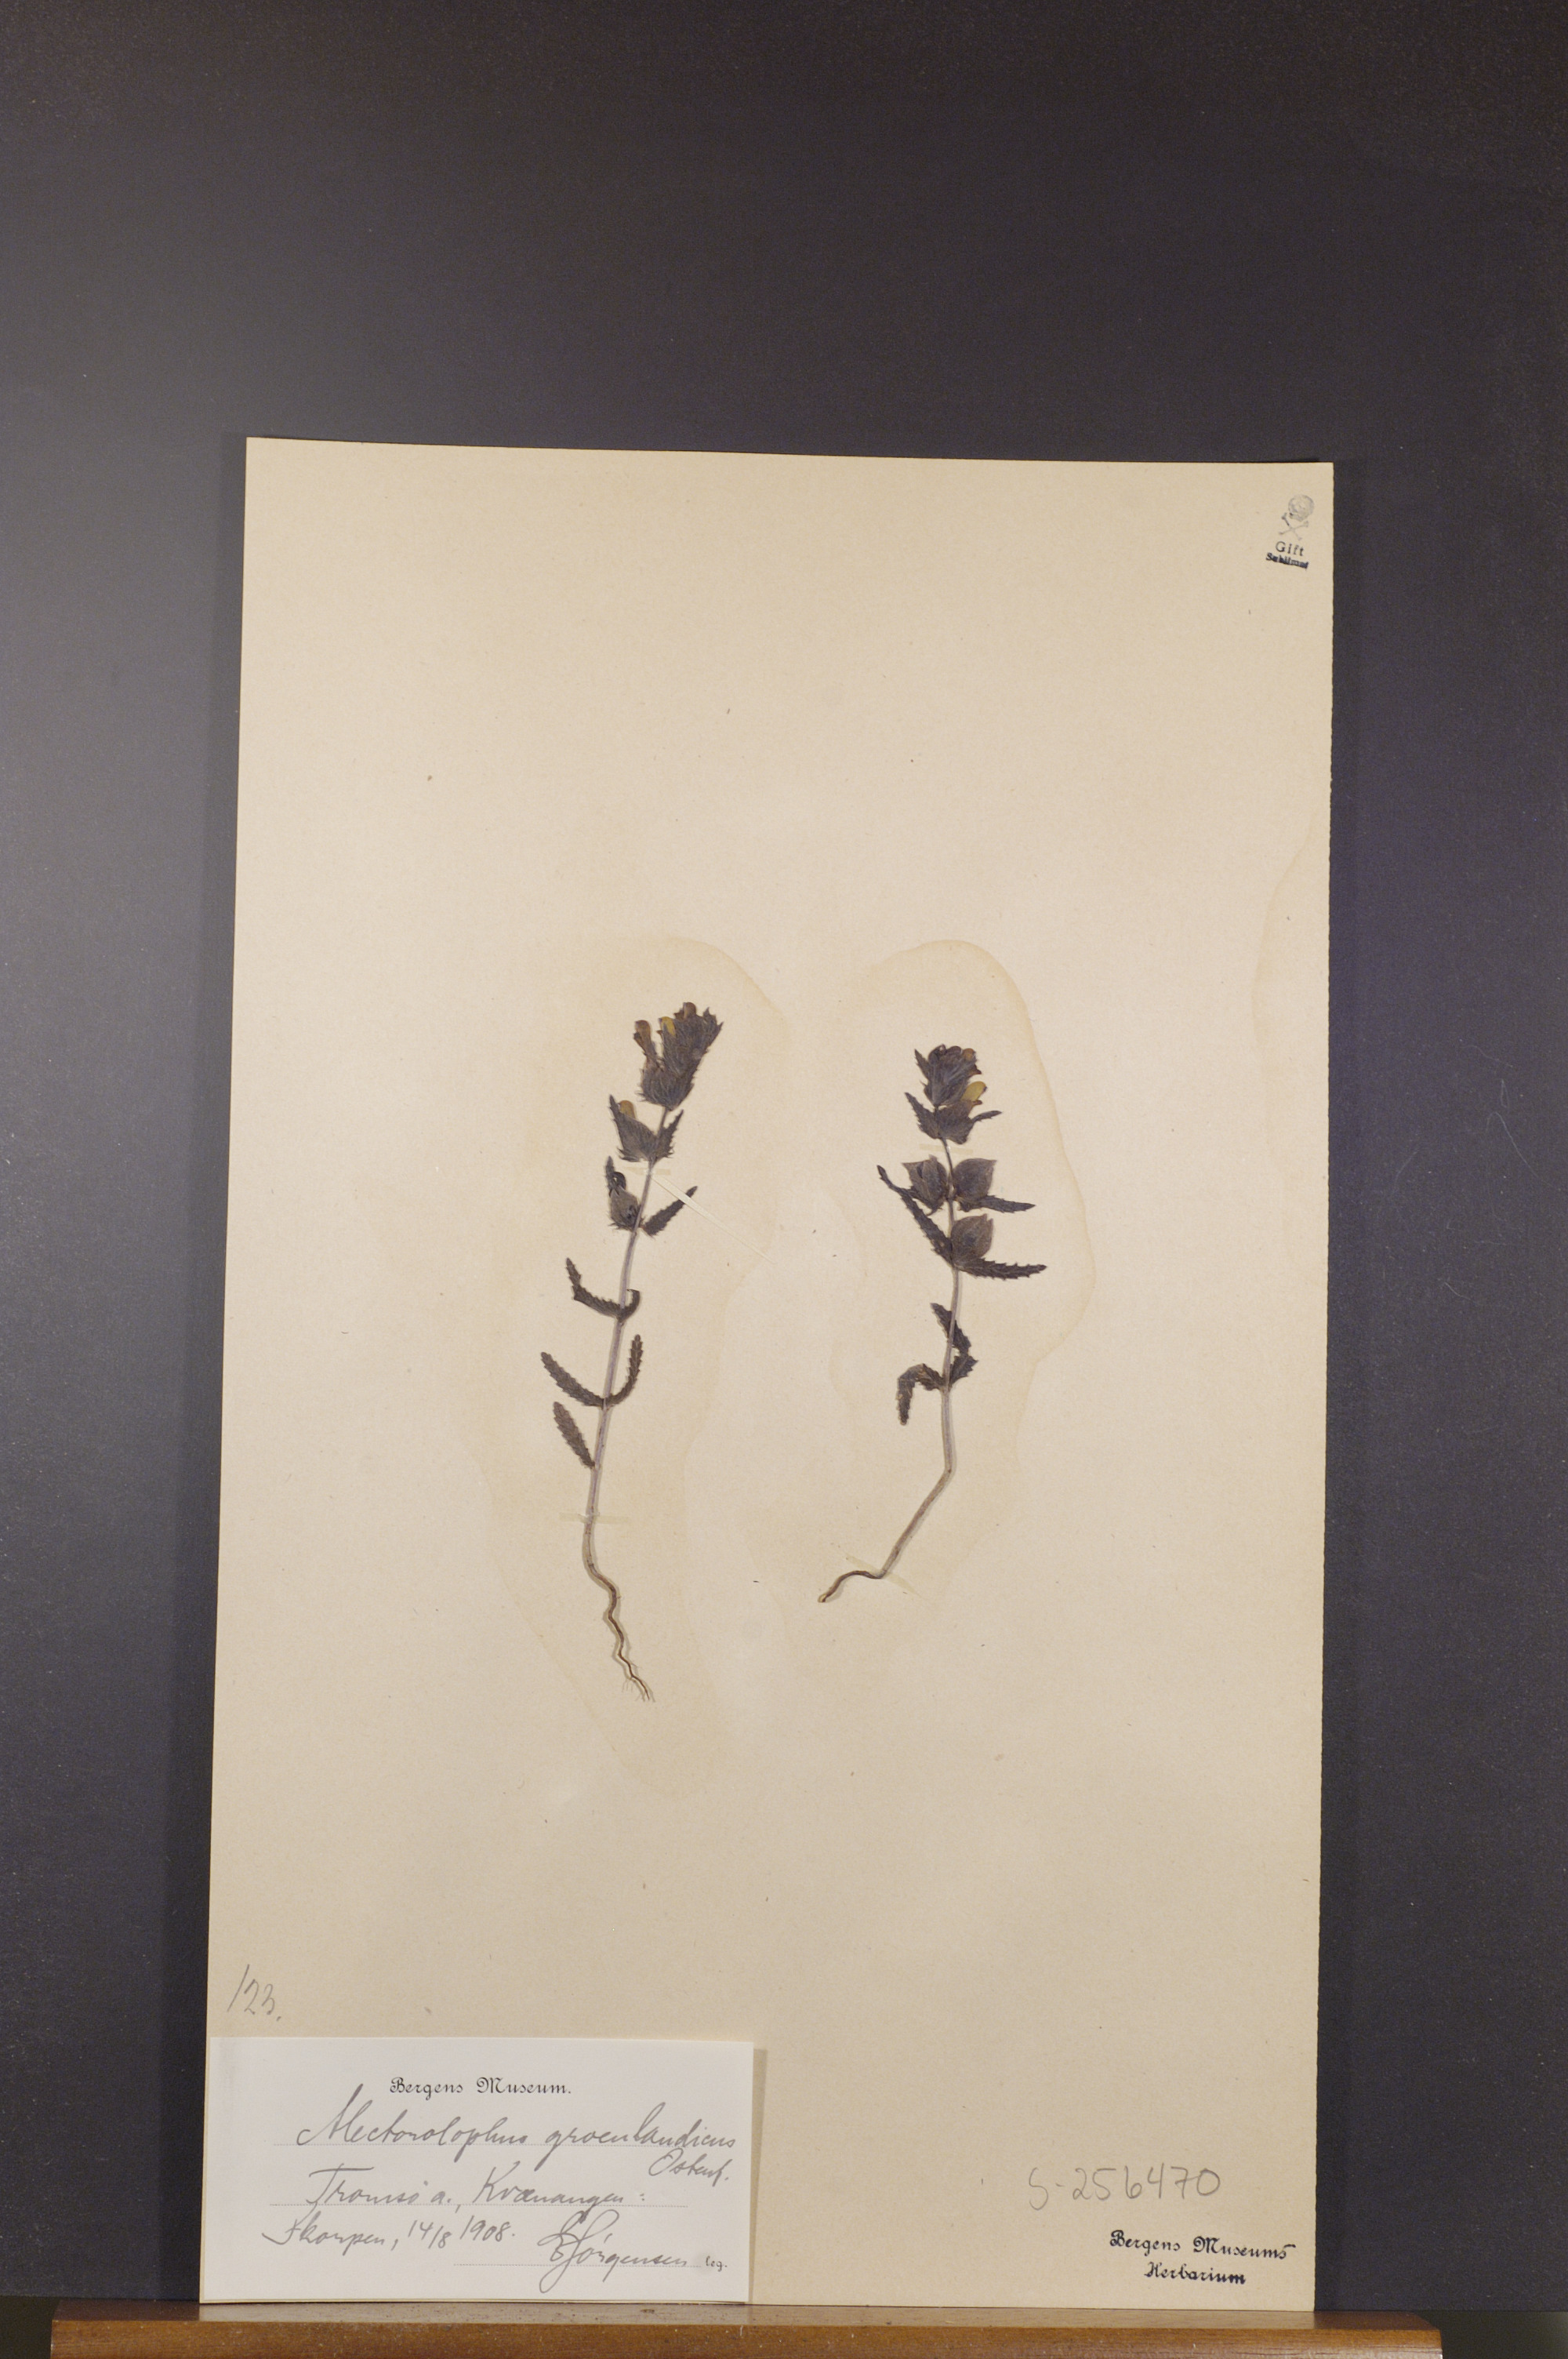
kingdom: Plantae
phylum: Tracheophyta
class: Magnoliopsida
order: Lamiales
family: Orobanchaceae
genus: Rhinanthus
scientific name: Rhinanthus groenlandicus
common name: Little yellow rattle
